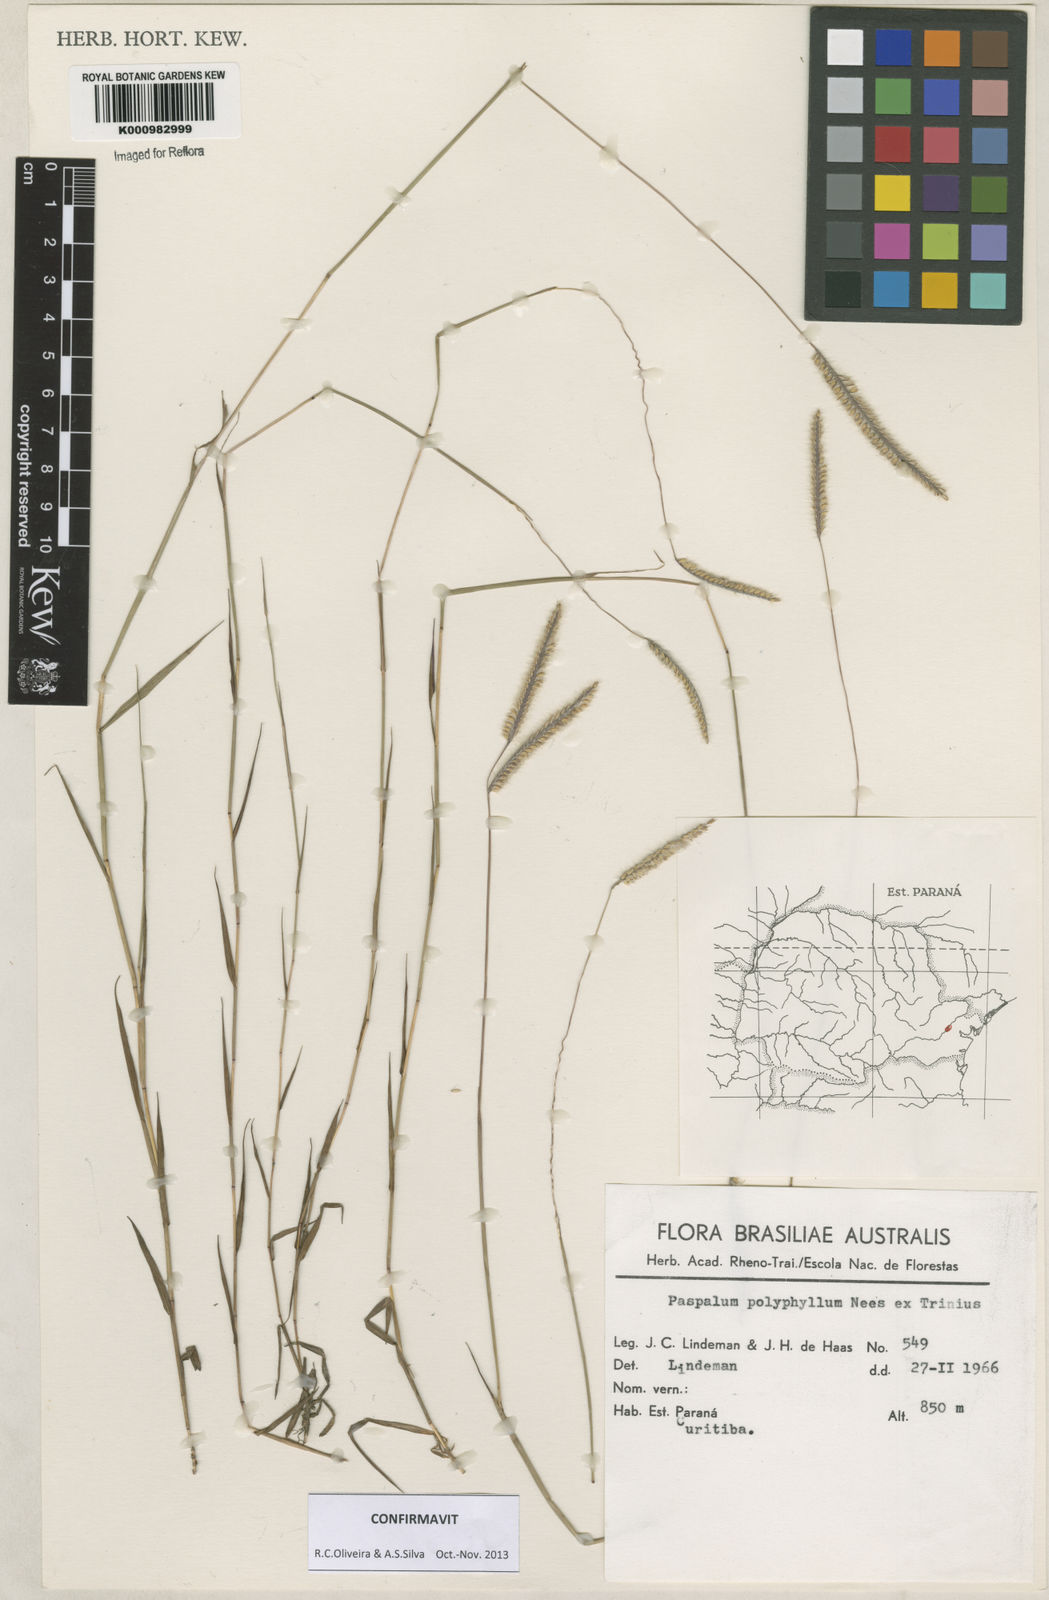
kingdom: Plantae
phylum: Tracheophyta
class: Liliopsida
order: Poales
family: Poaceae
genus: Paspalum
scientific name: Paspalum
